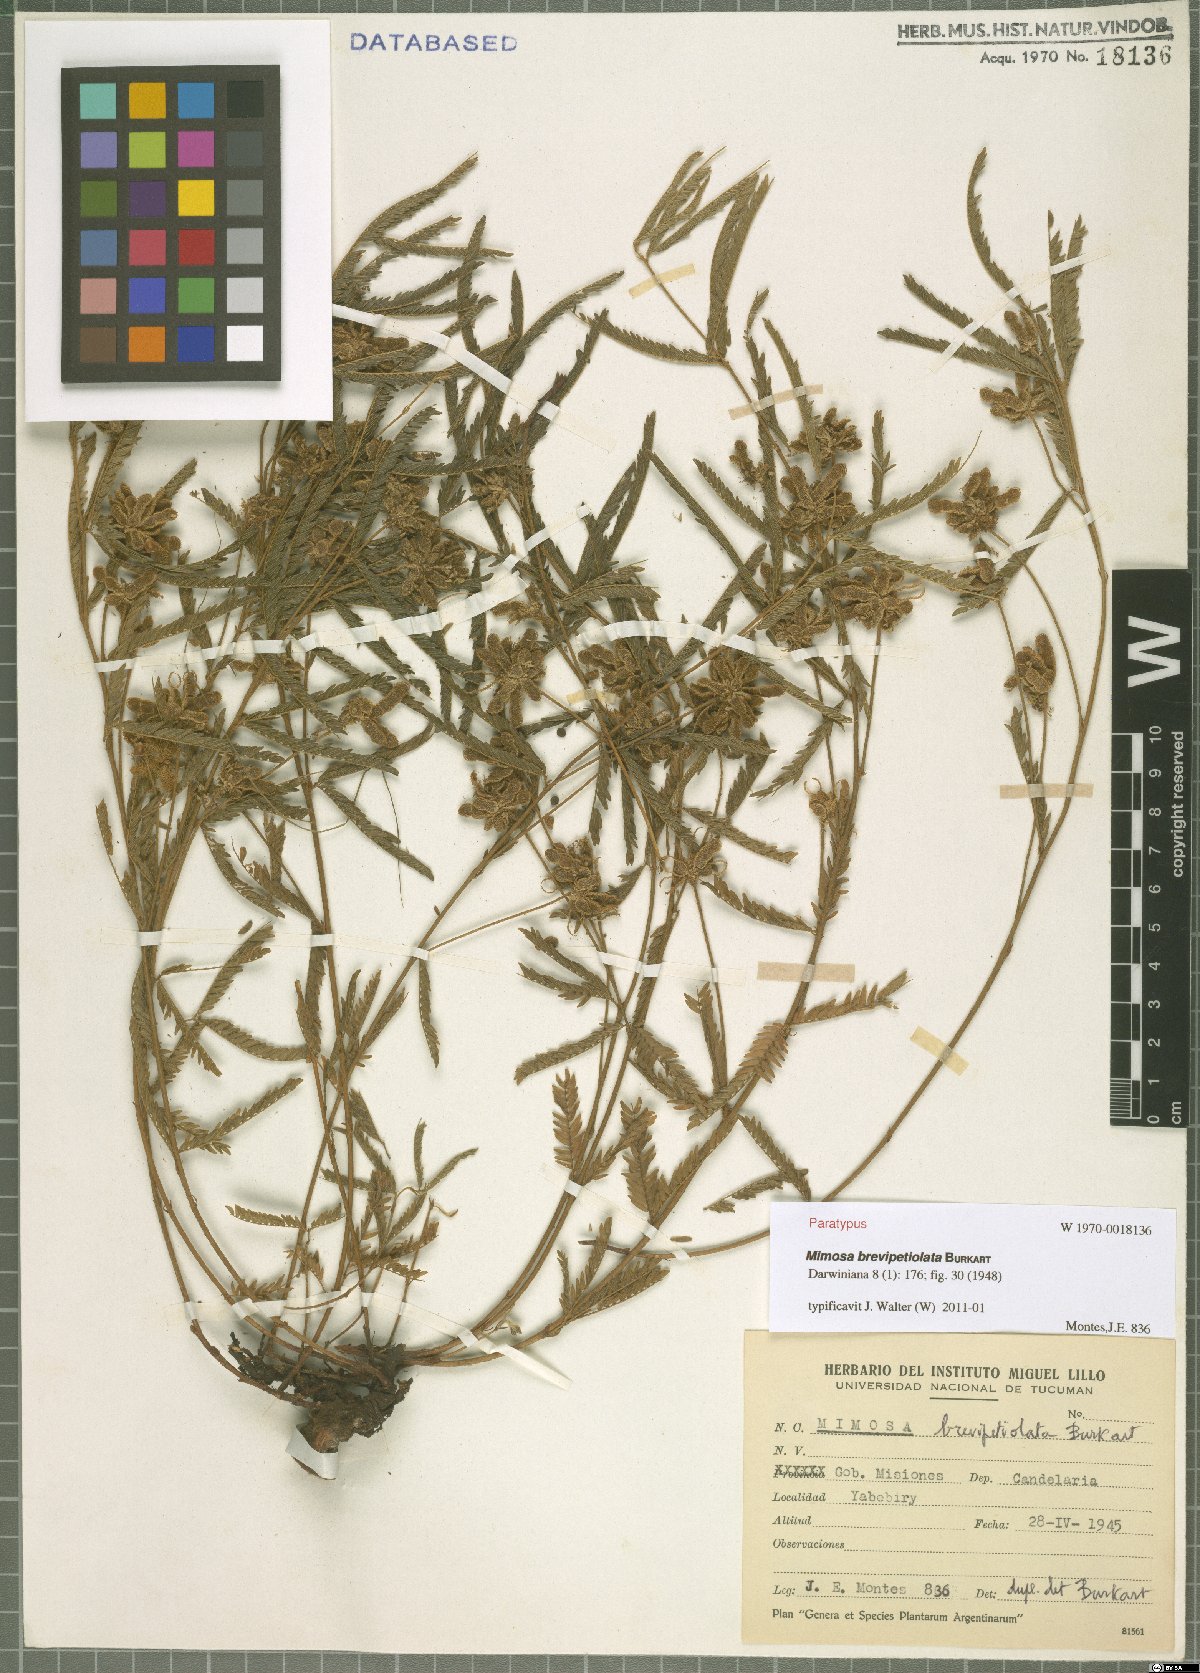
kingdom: Plantae
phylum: Tracheophyta
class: Magnoliopsida
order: Fabales
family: Fabaceae
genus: Mimosa
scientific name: Mimosa brevipetiolata
